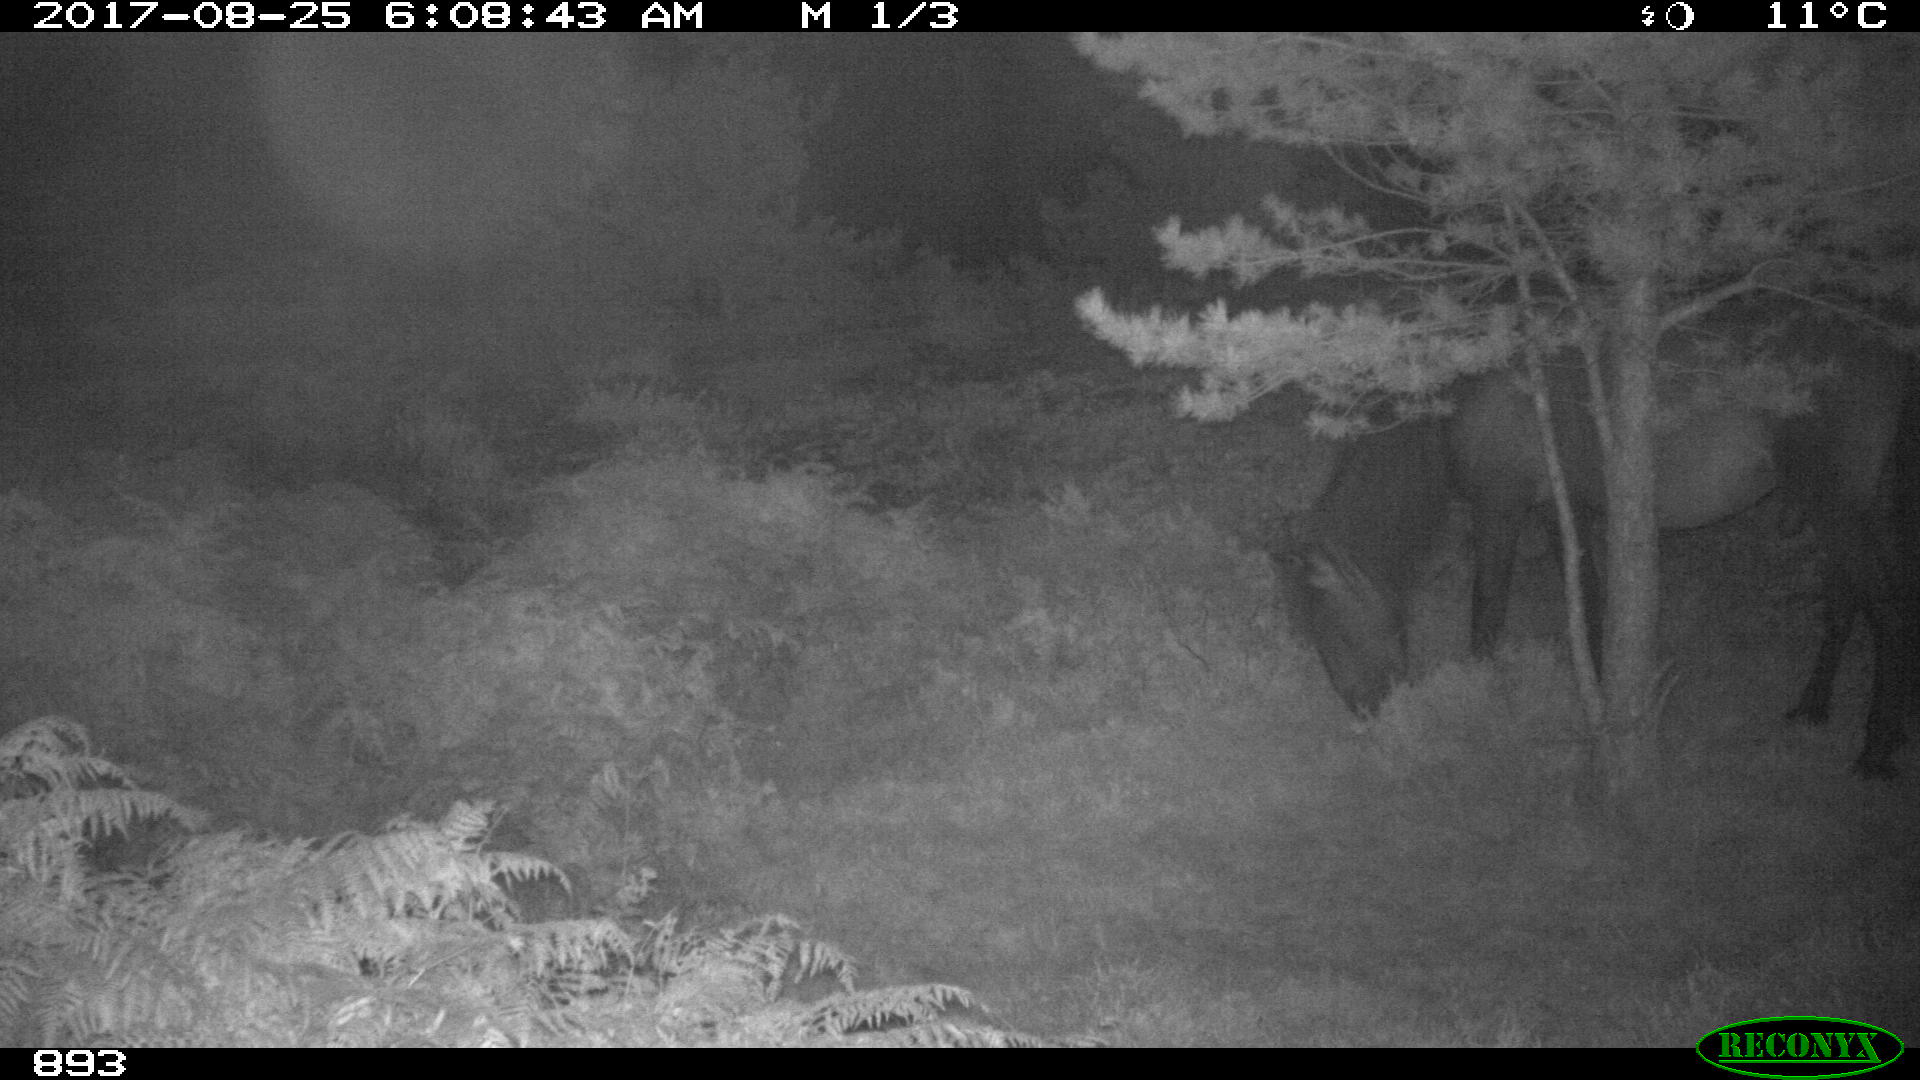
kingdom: Animalia
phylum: Chordata
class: Mammalia
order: Perissodactyla
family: Equidae
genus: Equus
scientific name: Equus caballus
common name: Horse
